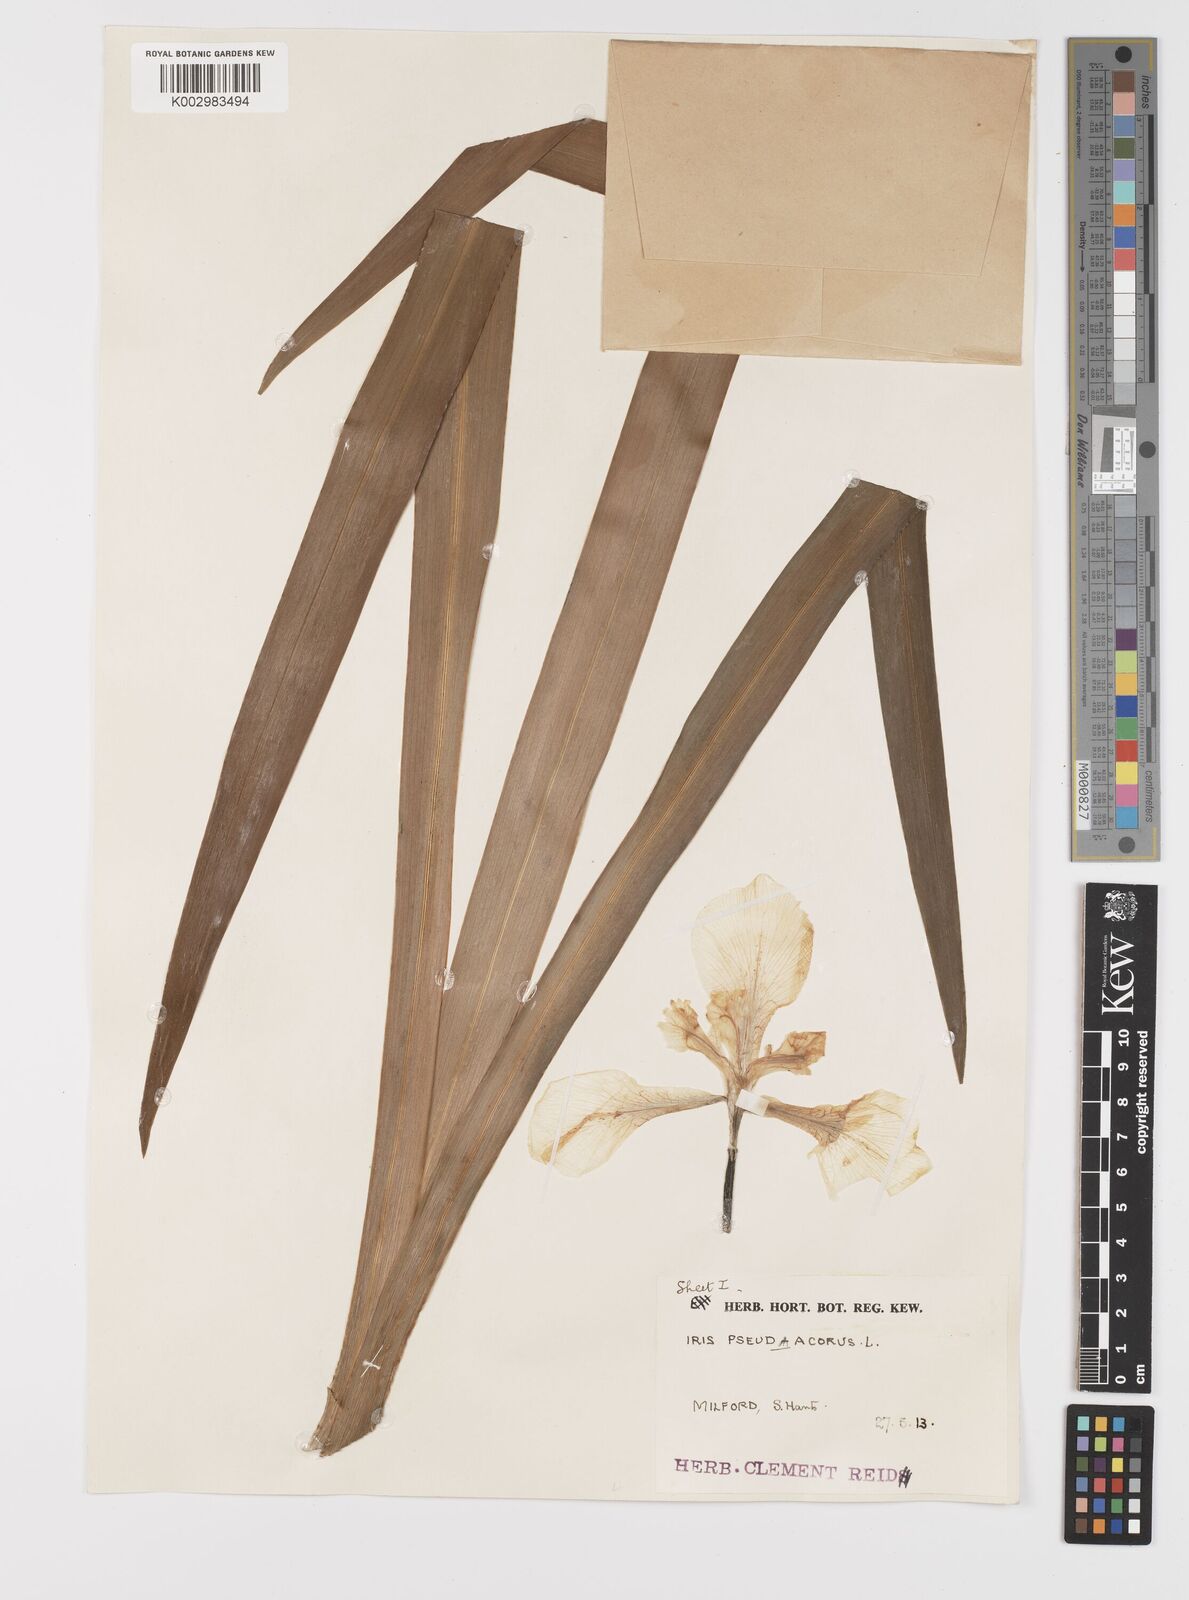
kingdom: Plantae
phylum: Tracheophyta
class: Liliopsida
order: Asparagales
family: Iridaceae
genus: Iris
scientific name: Iris pseudacorus
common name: Yellow flag
